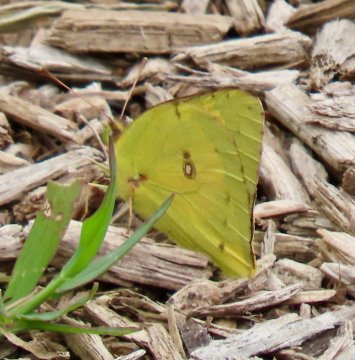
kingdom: Animalia
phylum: Arthropoda
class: Insecta
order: Lepidoptera
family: Pieridae
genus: Colias
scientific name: Colias eurytheme
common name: Orange Sulphur
